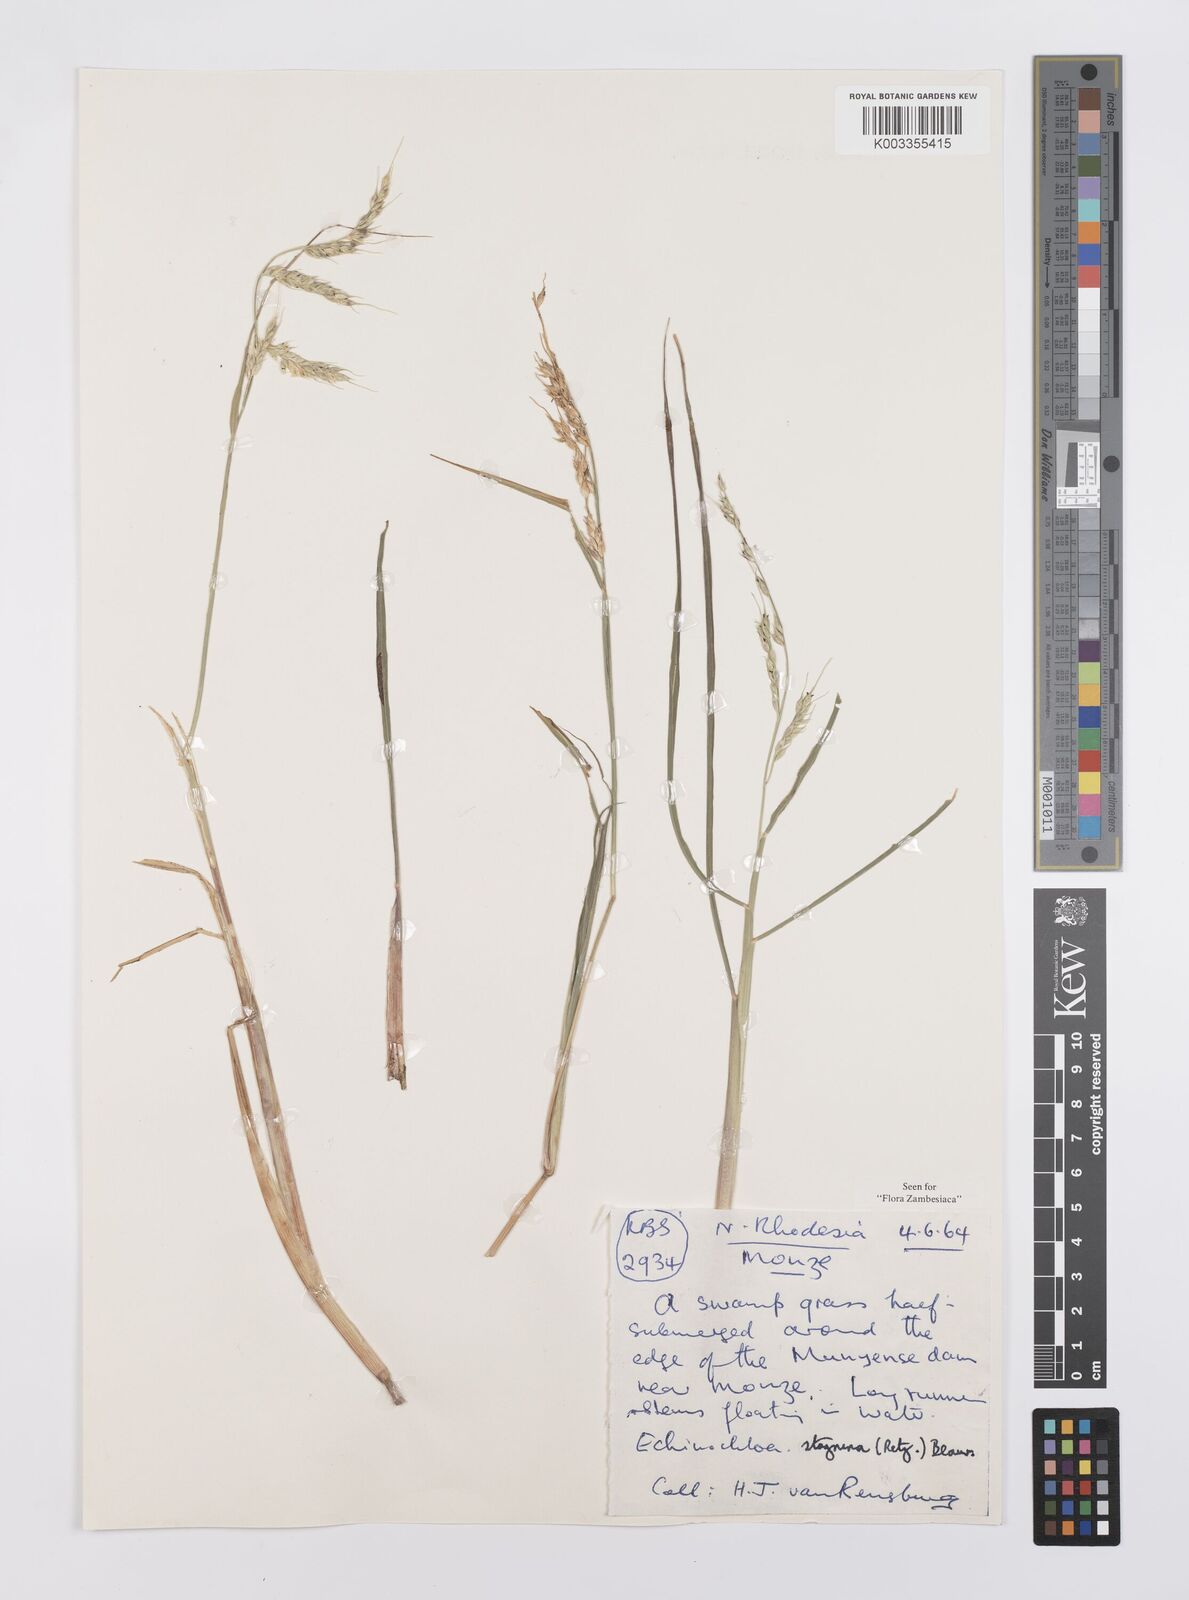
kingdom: Plantae
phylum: Tracheophyta
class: Liliopsida
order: Poales
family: Poaceae
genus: Echinochloa
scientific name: Echinochloa stagnina
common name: Burgu grass
